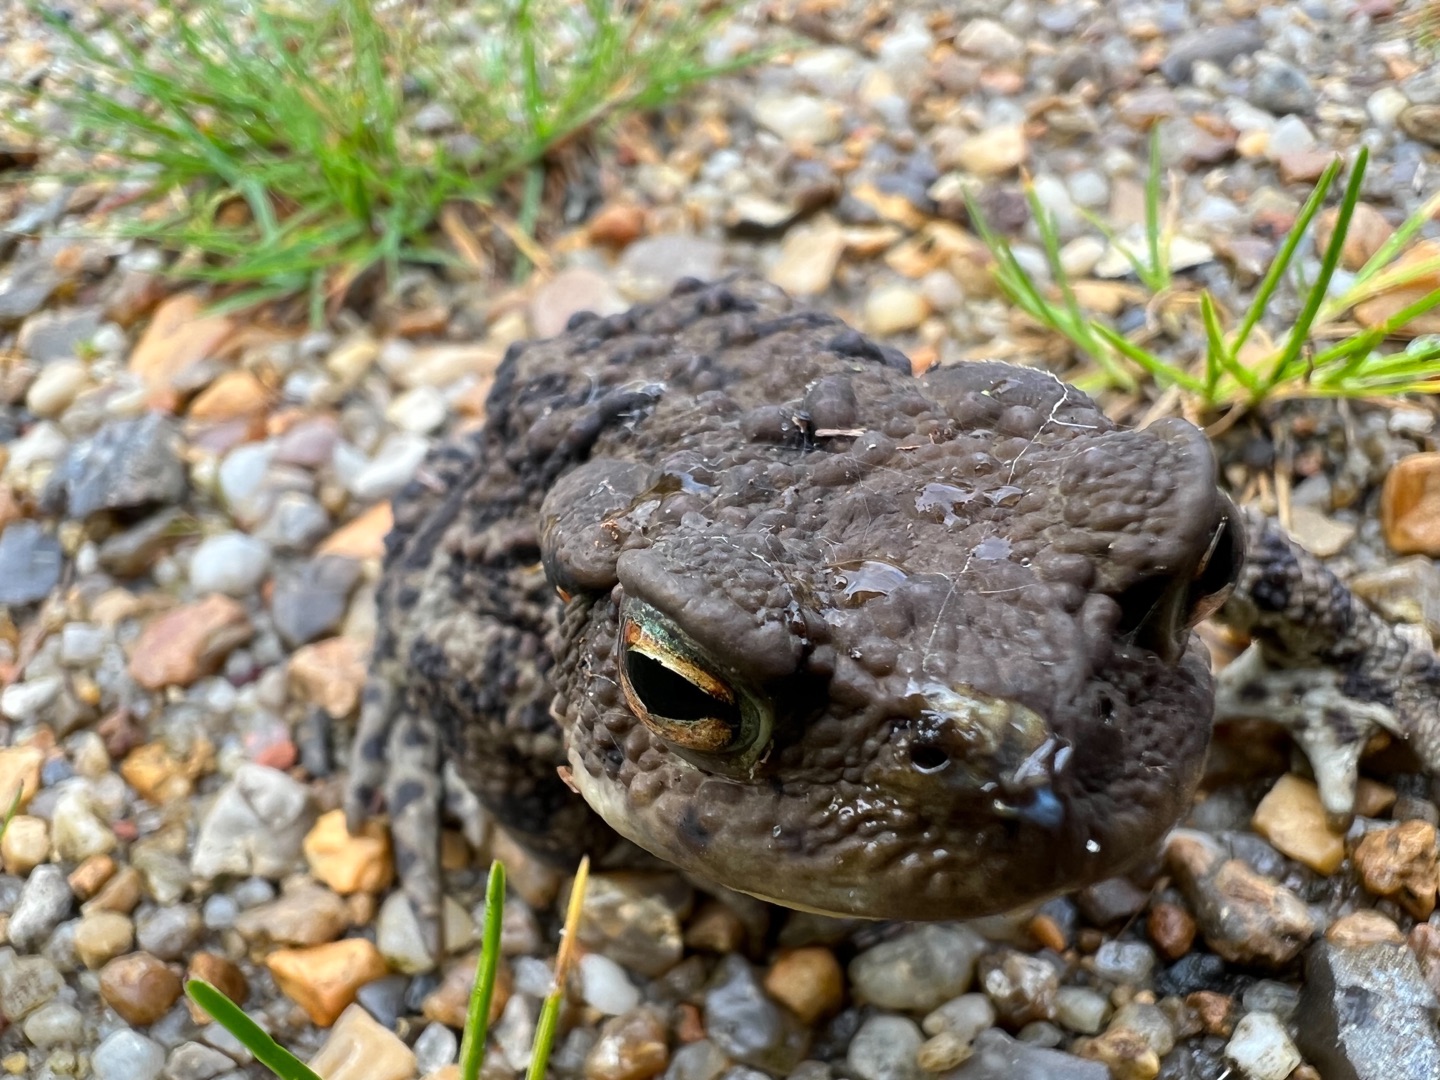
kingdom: Animalia
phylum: Chordata
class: Amphibia
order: Anura
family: Bufonidae
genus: Bufo
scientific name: Bufo bufo
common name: Skrubtudse
